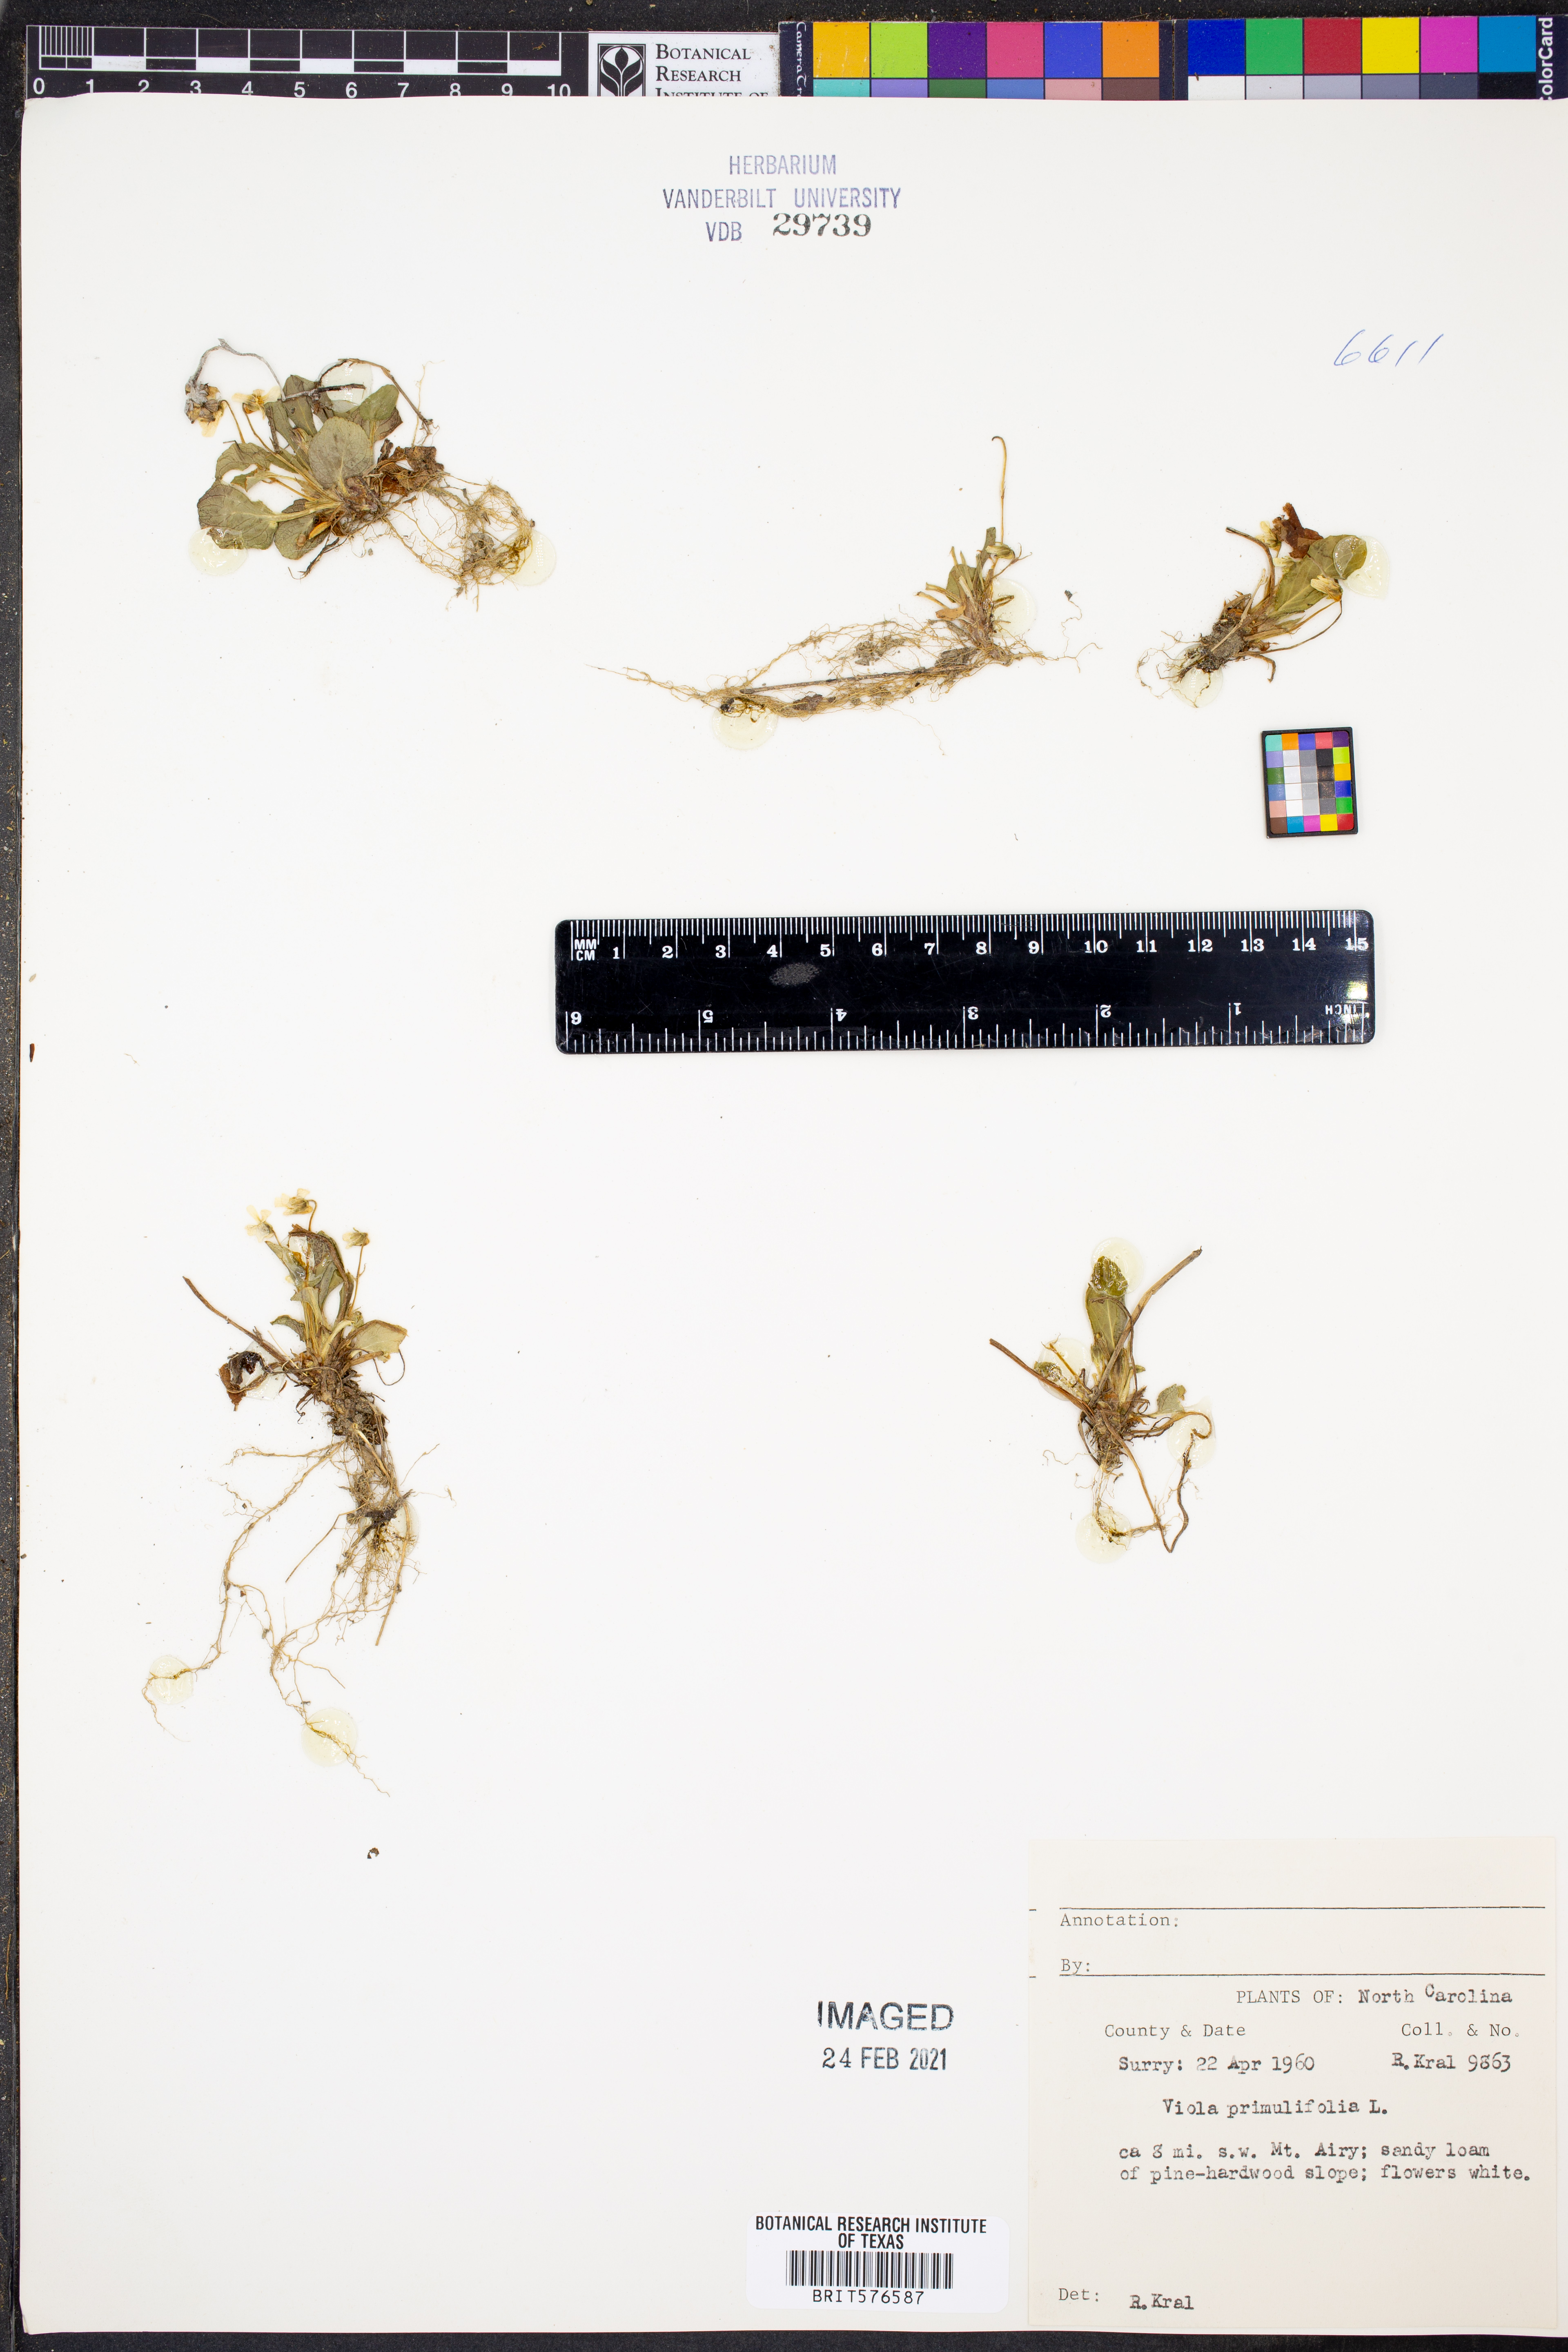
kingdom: Plantae
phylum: Tracheophyta
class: Magnoliopsida
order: Malpighiales
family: Violaceae
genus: Viola
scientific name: Viola primulifolia
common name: Primrose-leaf violet
